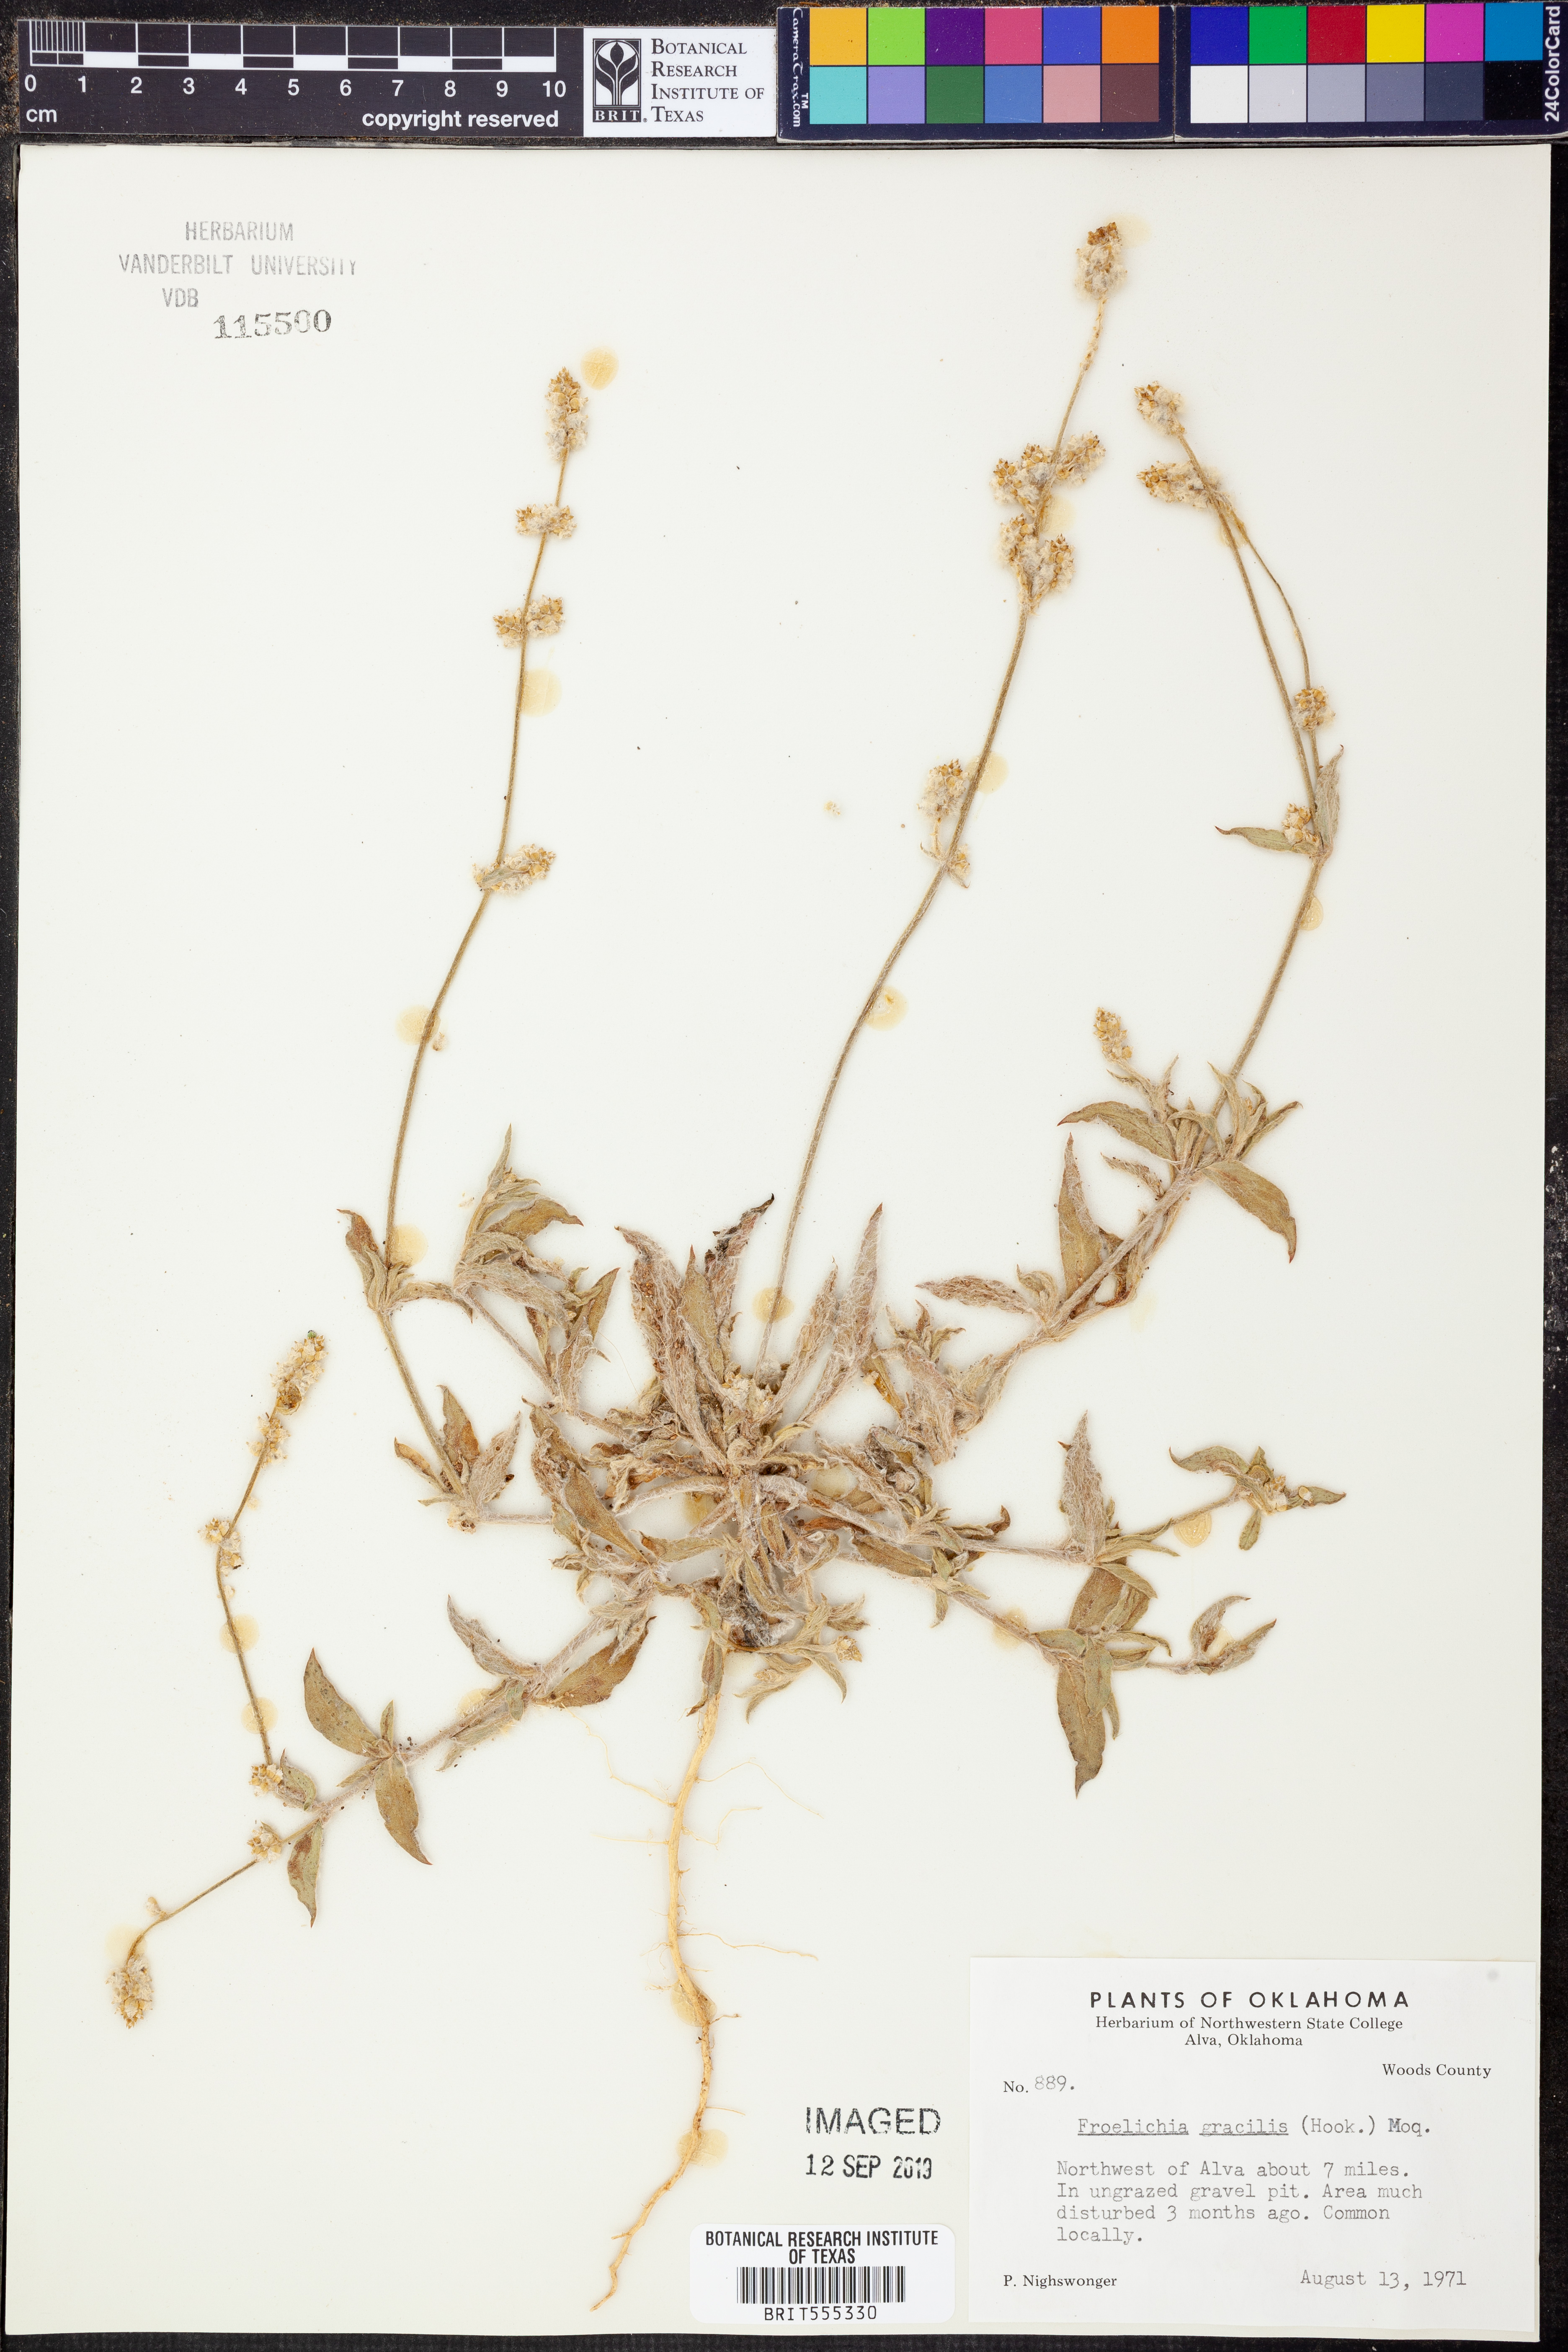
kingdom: Plantae
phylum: Tracheophyta
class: Magnoliopsida
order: Caryophyllales
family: Amaranthaceae
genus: Froelichia
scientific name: Froelichia gracilis
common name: Slender cottonweed
